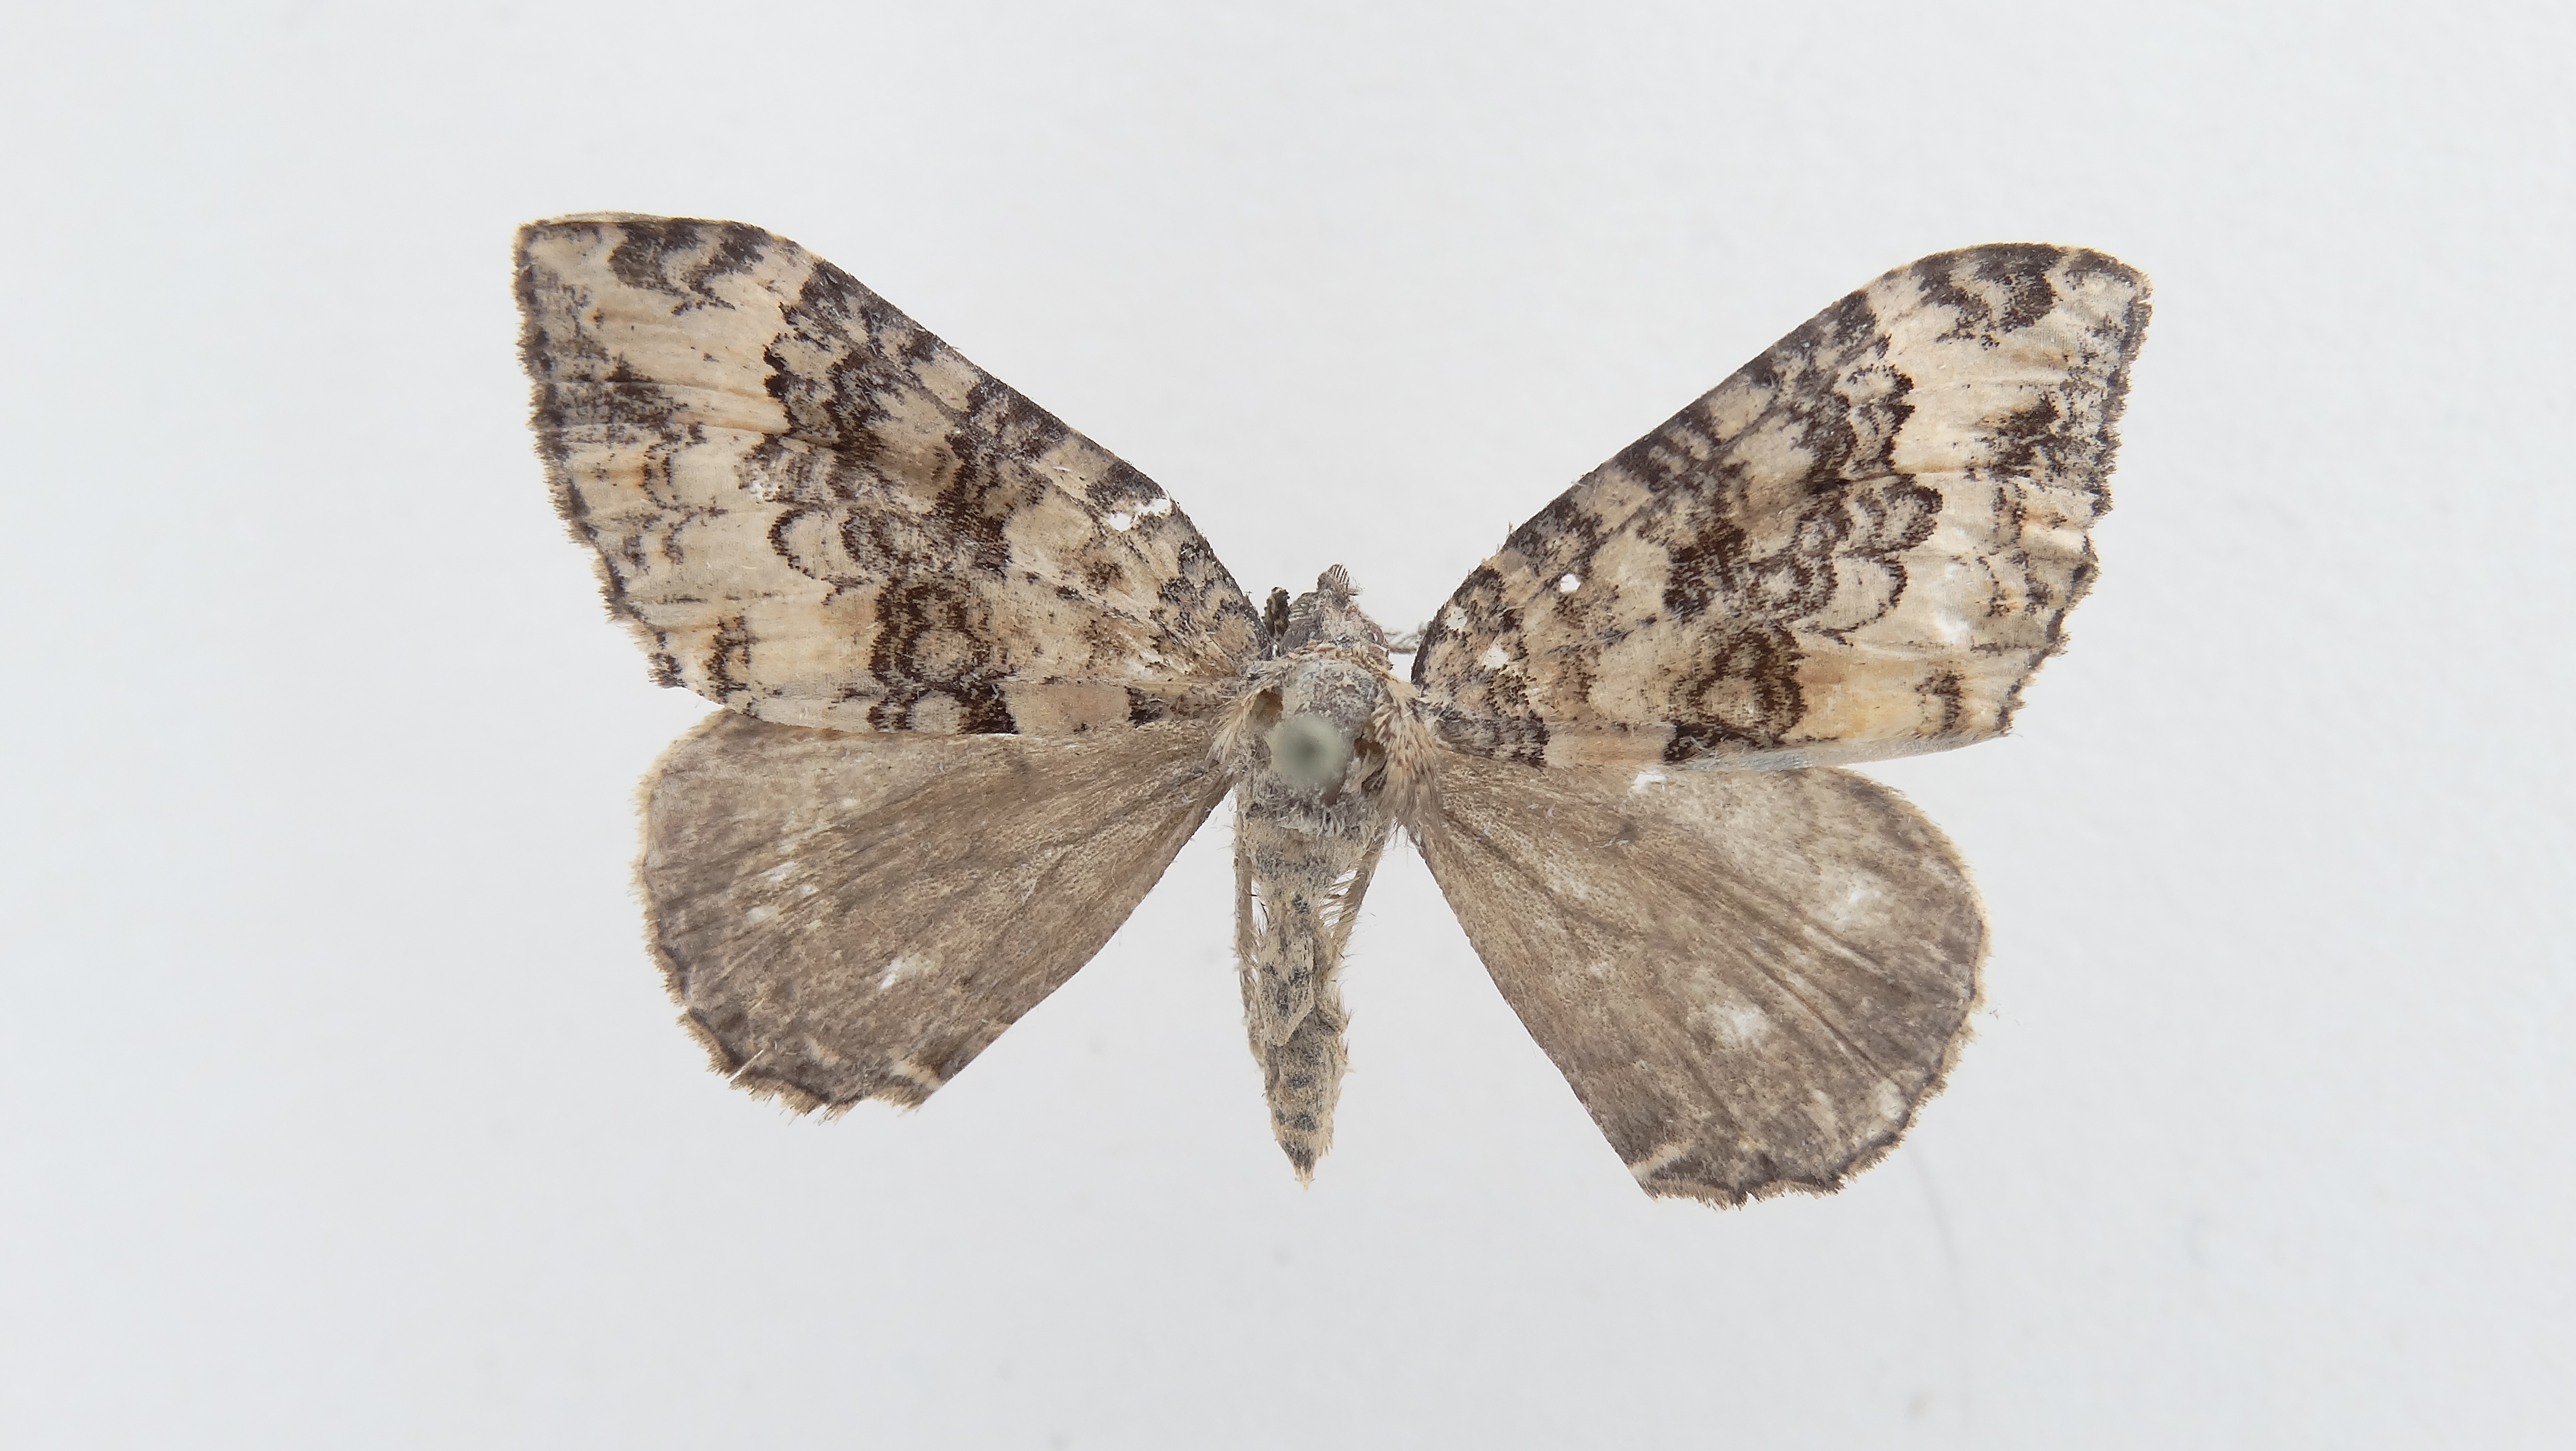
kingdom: Animalia
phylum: Arthropoda
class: Insecta
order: Lepidoptera
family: Geometridae
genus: Xanthorhoe
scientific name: Xanthorhoe chiloena
